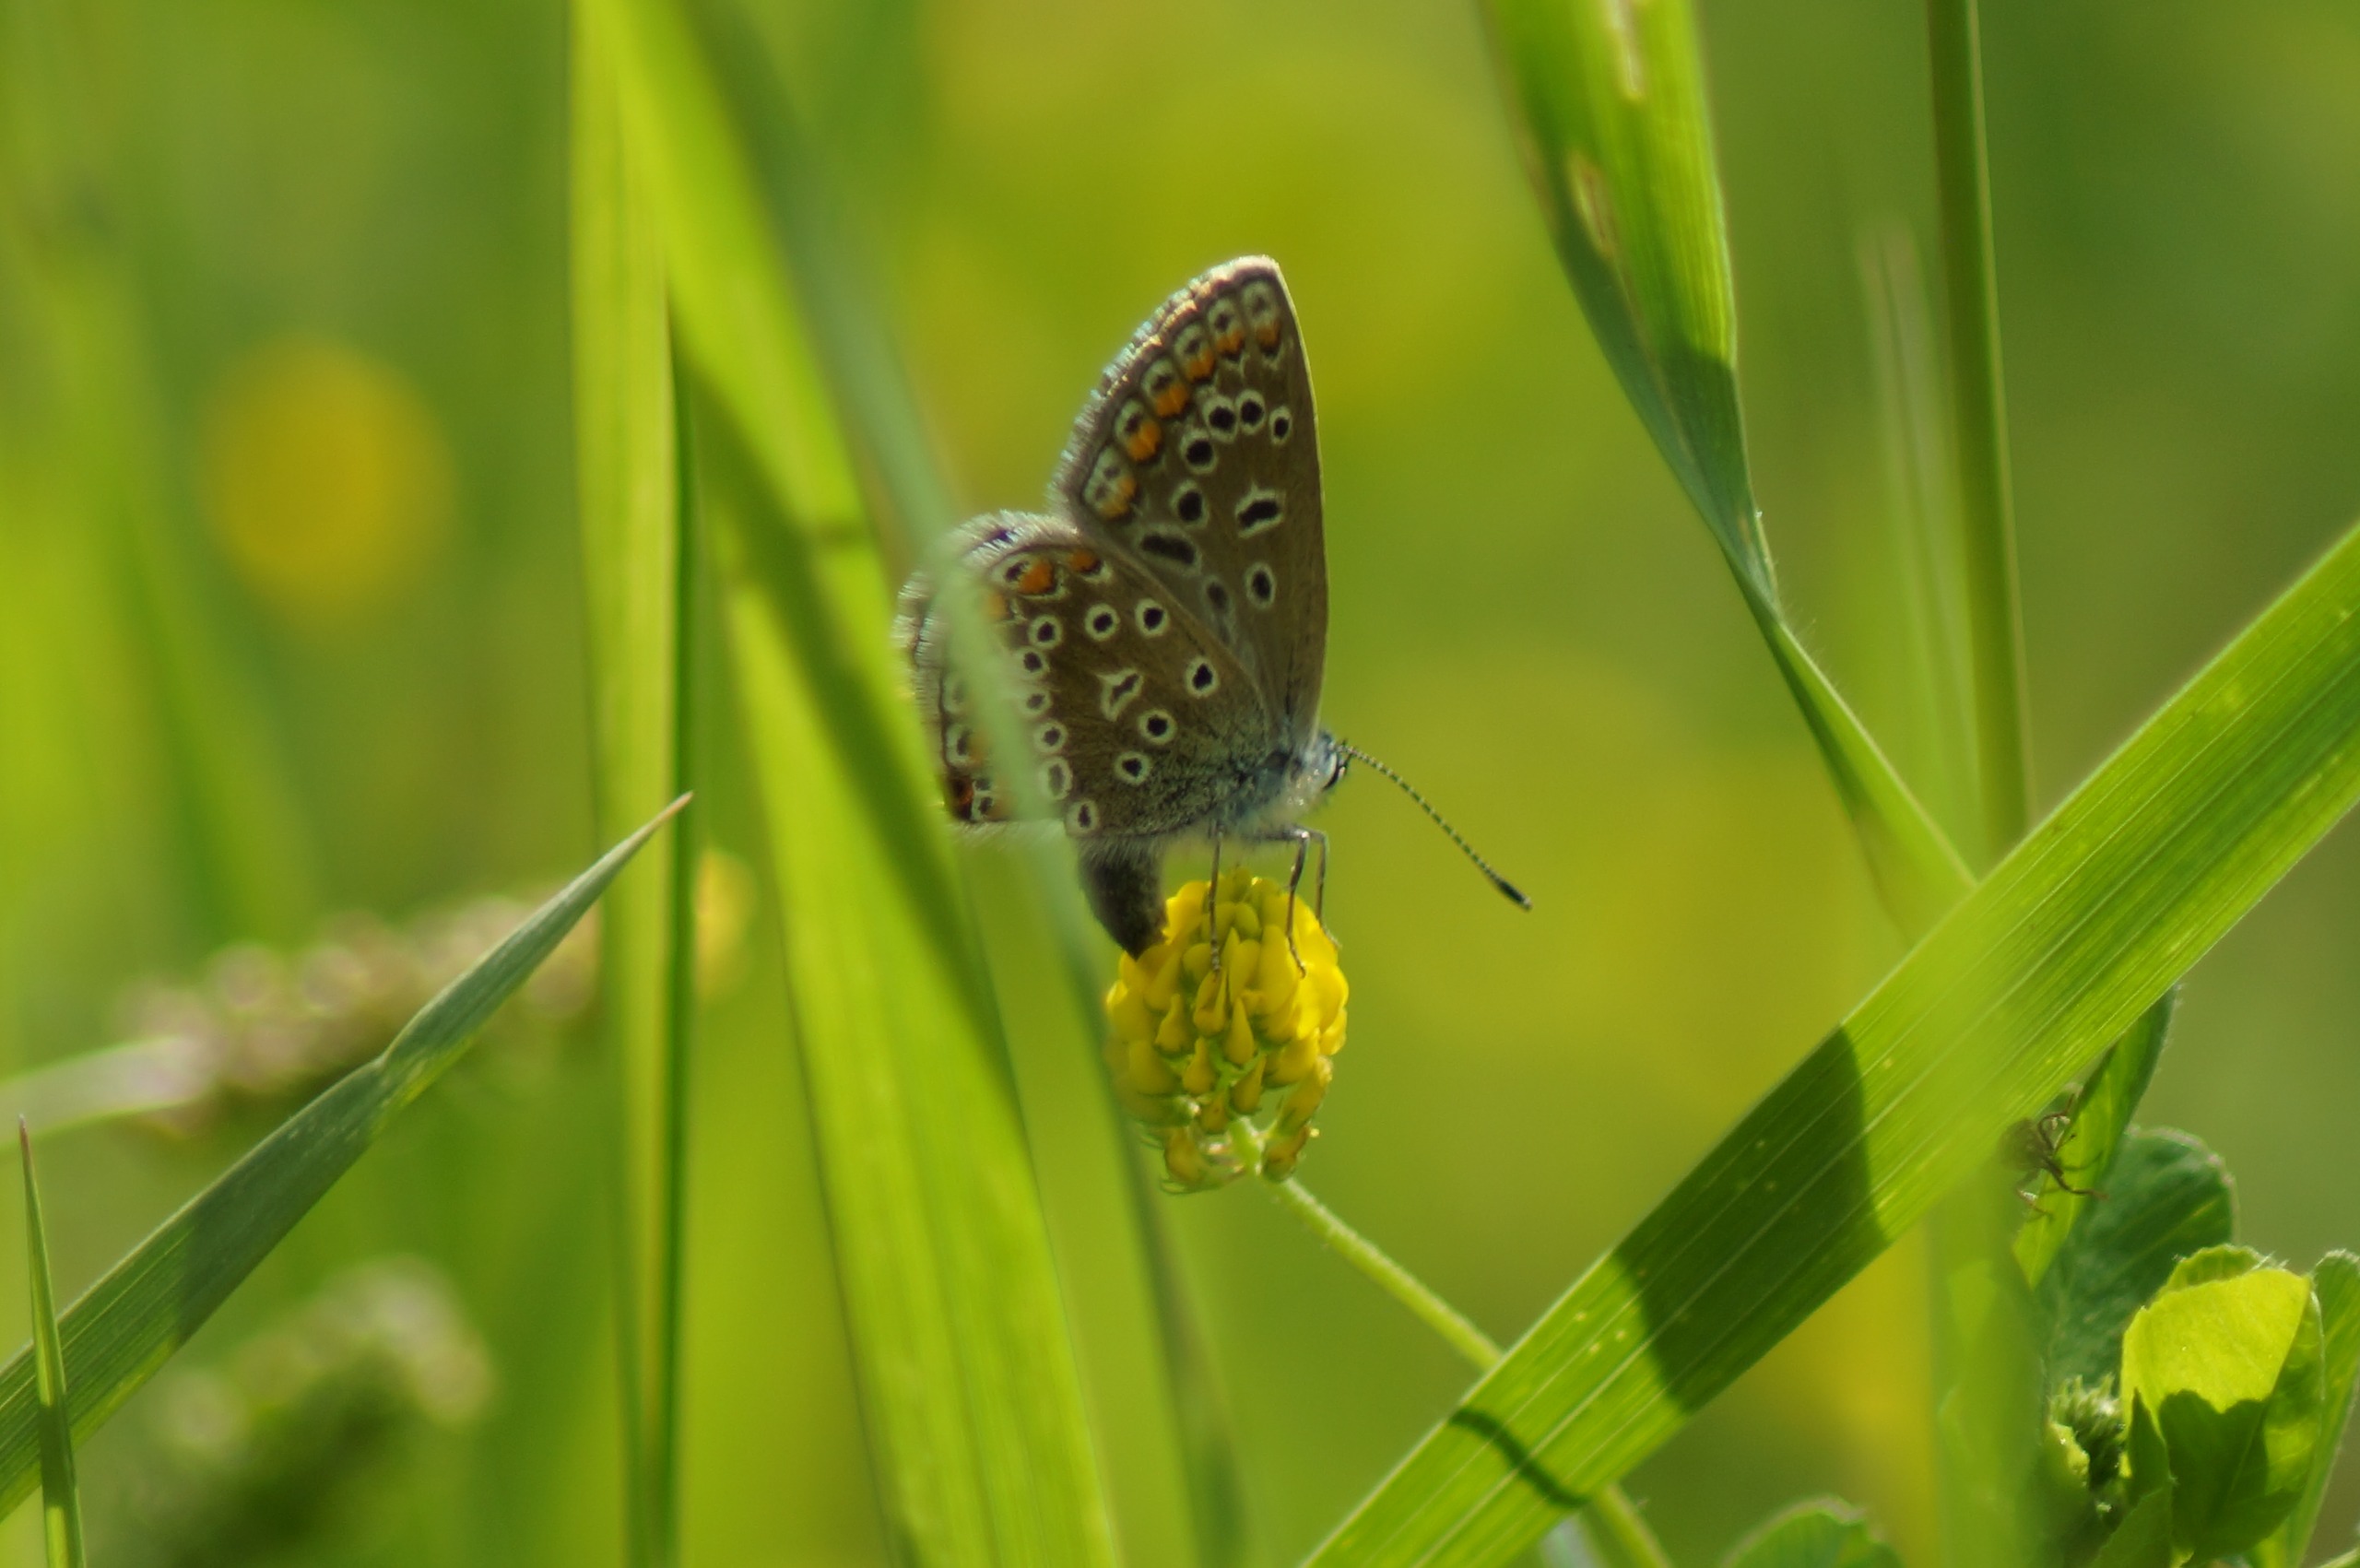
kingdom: Animalia
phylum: Arthropoda
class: Insecta
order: Lepidoptera
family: Lycaenidae
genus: Polyommatus
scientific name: Polyommatus icarus
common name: Almindelig blåfugl
